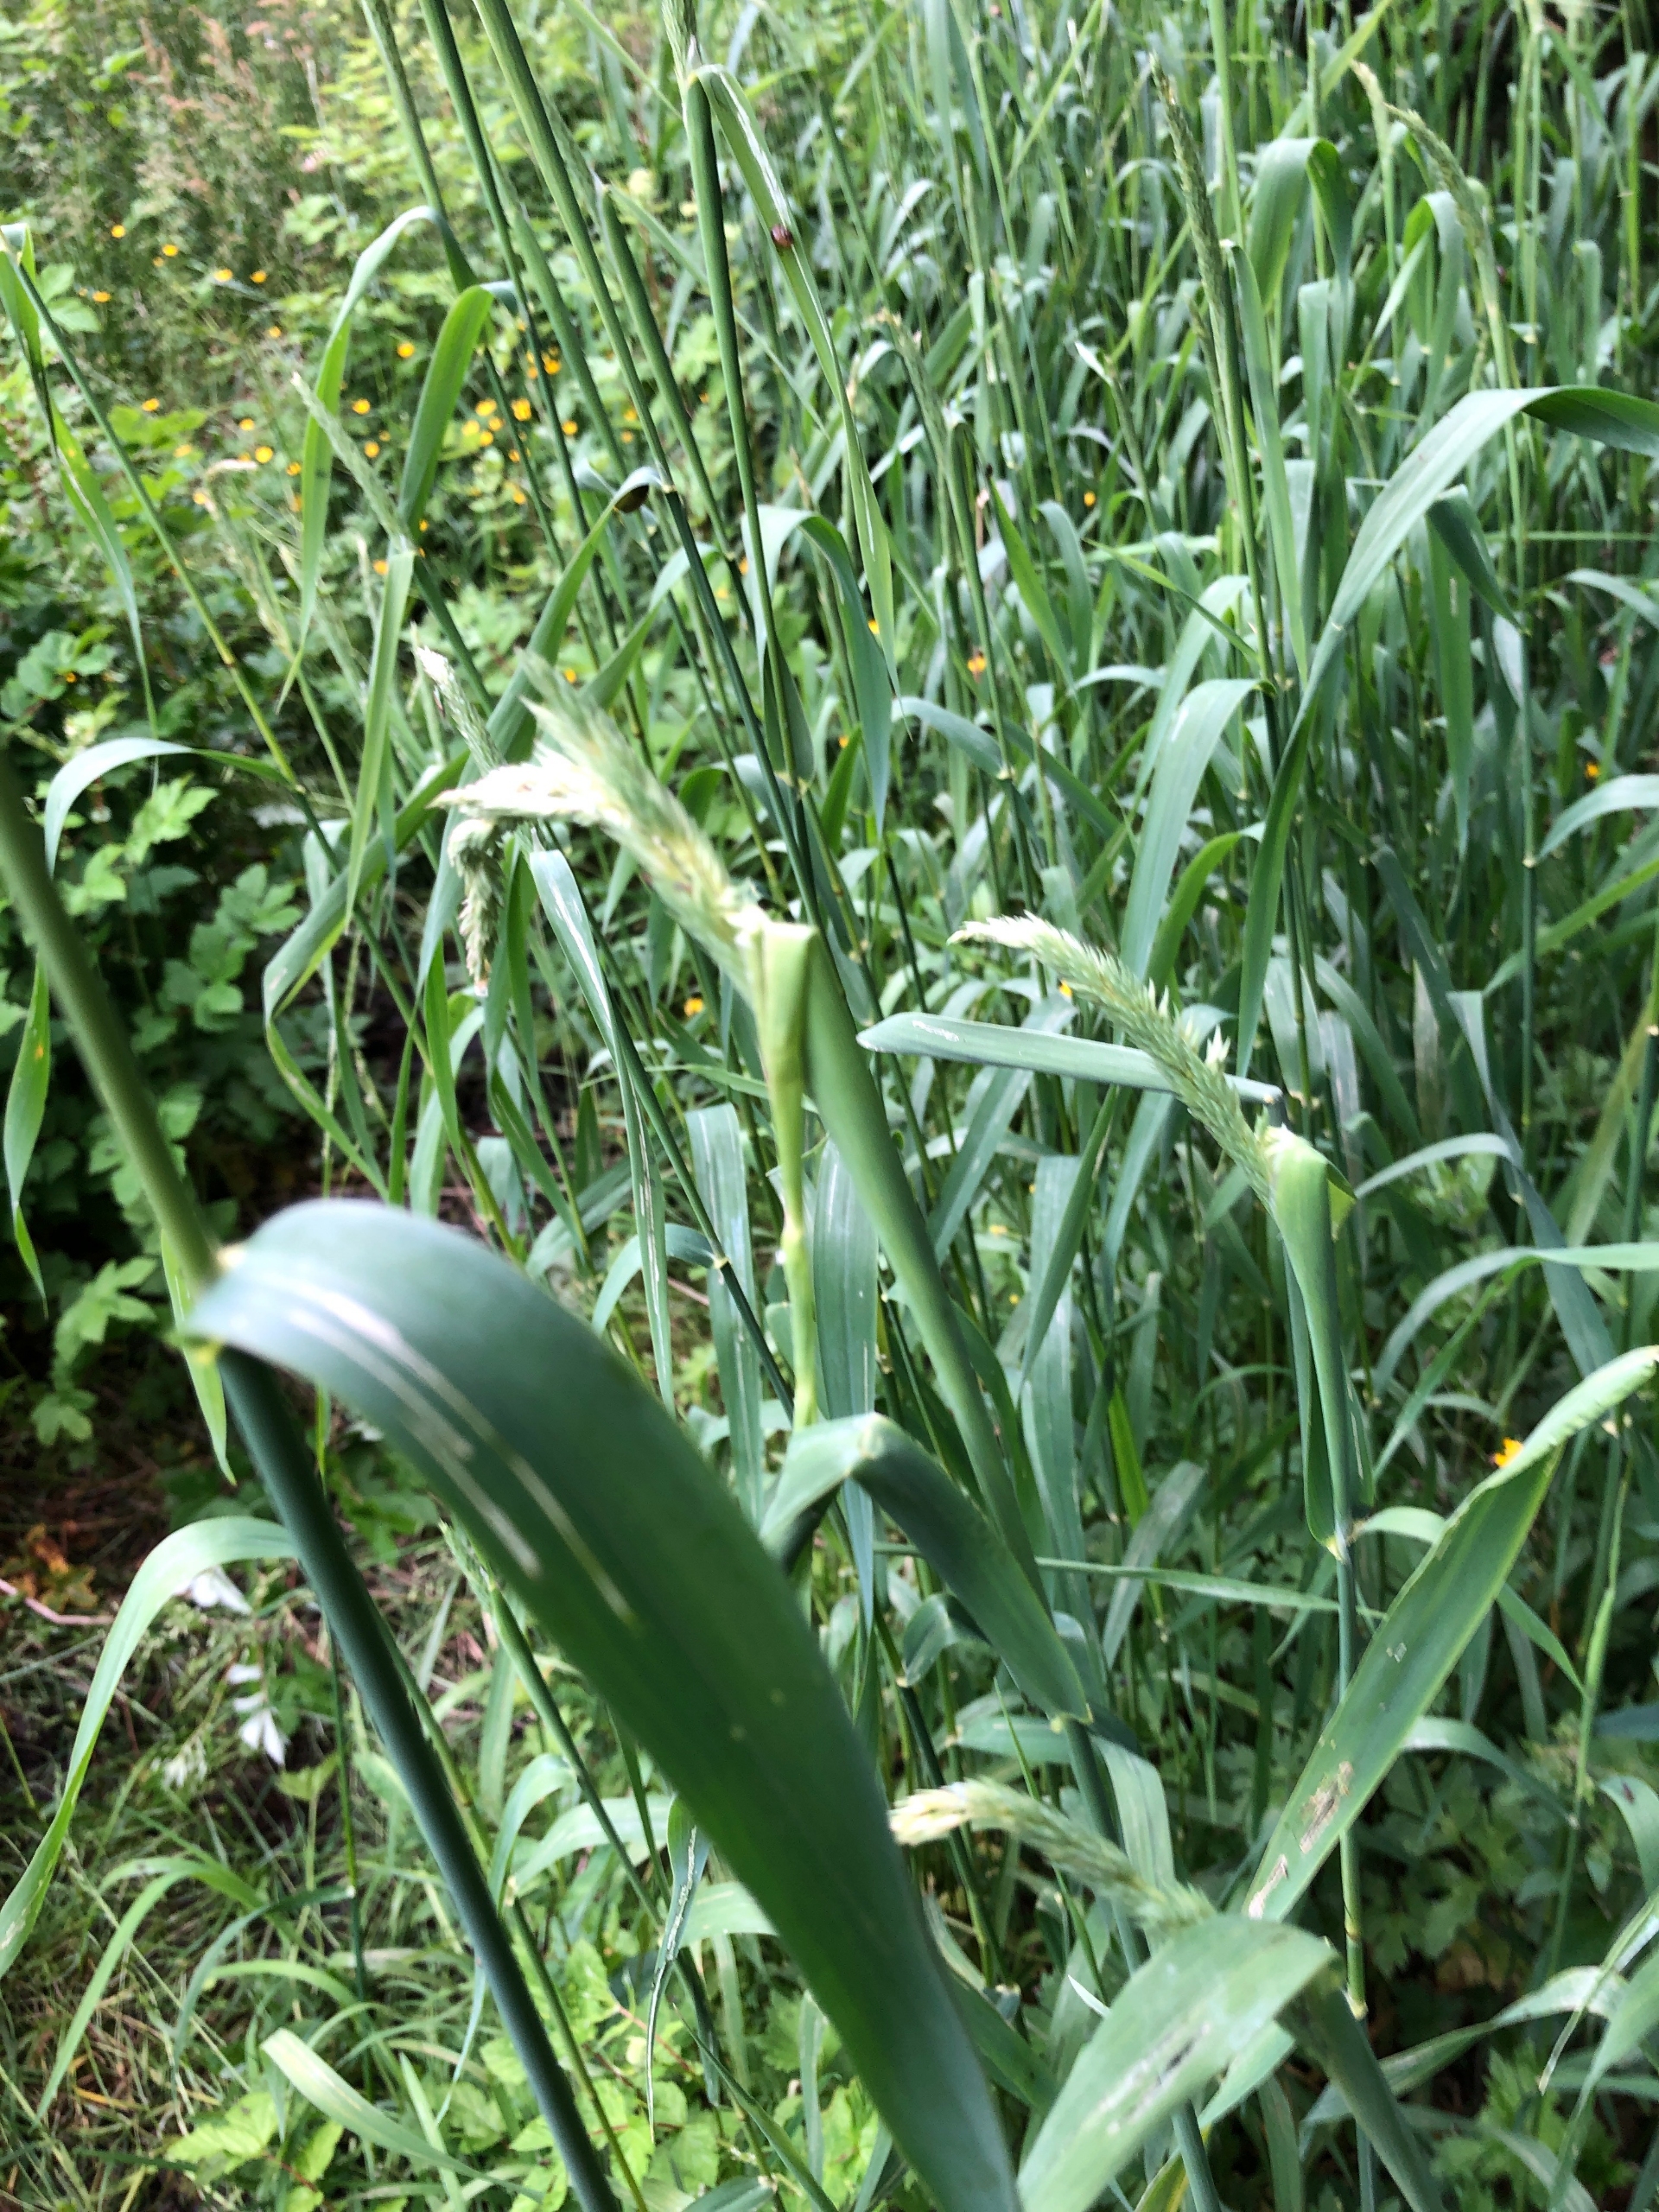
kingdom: Plantae
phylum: Tracheophyta
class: Liliopsida
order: Poales
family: Poaceae
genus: Phalaris
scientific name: Phalaris arundinacea
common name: Rørgræs
